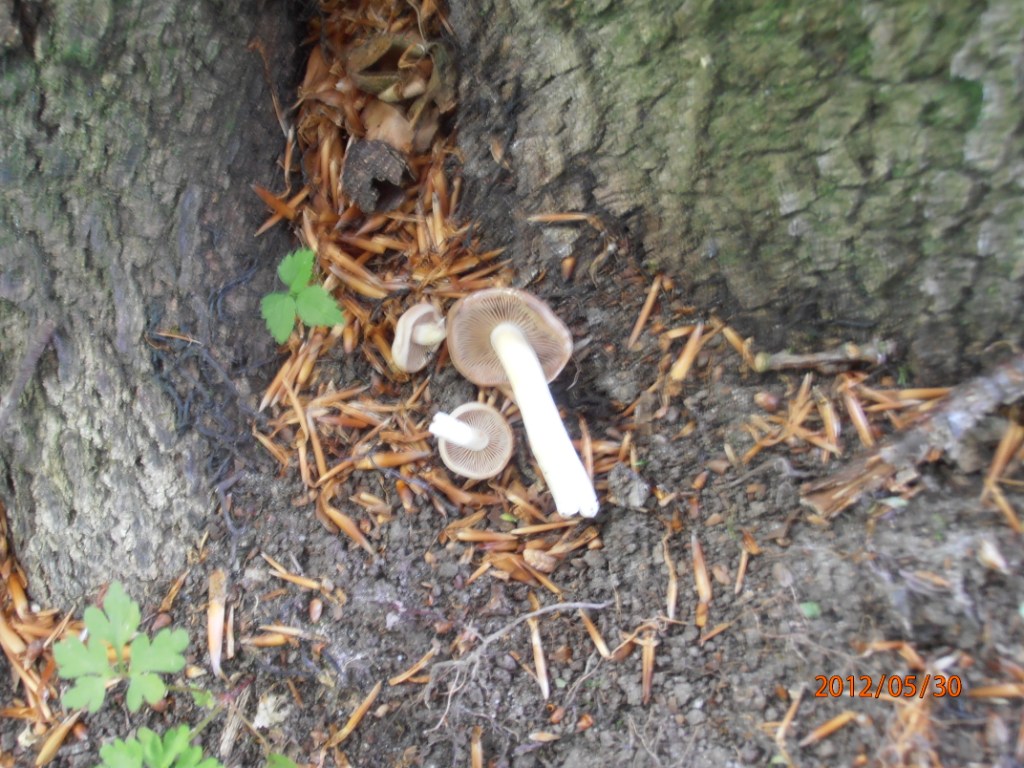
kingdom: Fungi
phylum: Basidiomycota
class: Agaricomycetes
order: Agaricales
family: Psathyrellaceae
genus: Homophron
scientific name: Homophron spadiceum
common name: daddelbrun mørkhat
